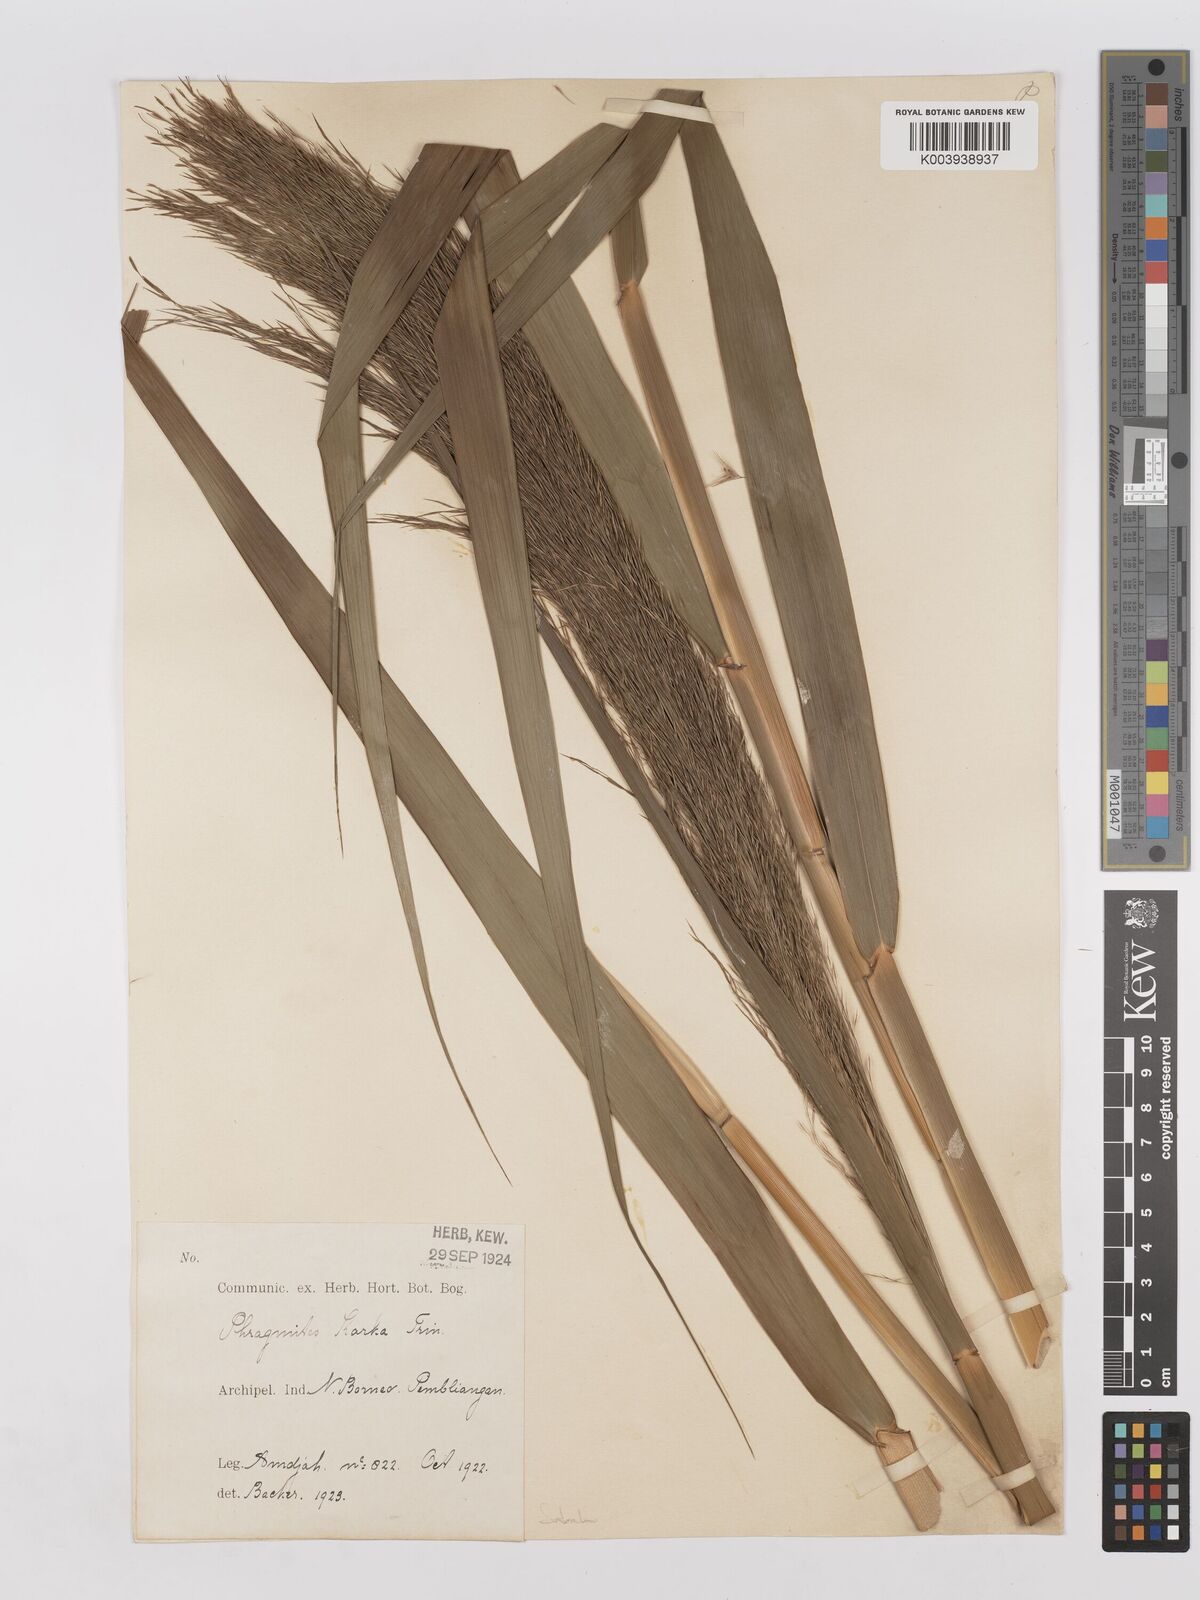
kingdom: Plantae
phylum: Tracheophyta
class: Liliopsida
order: Poales
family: Poaceae
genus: Phragmites
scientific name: Phragmites karka
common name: Tropical reed
